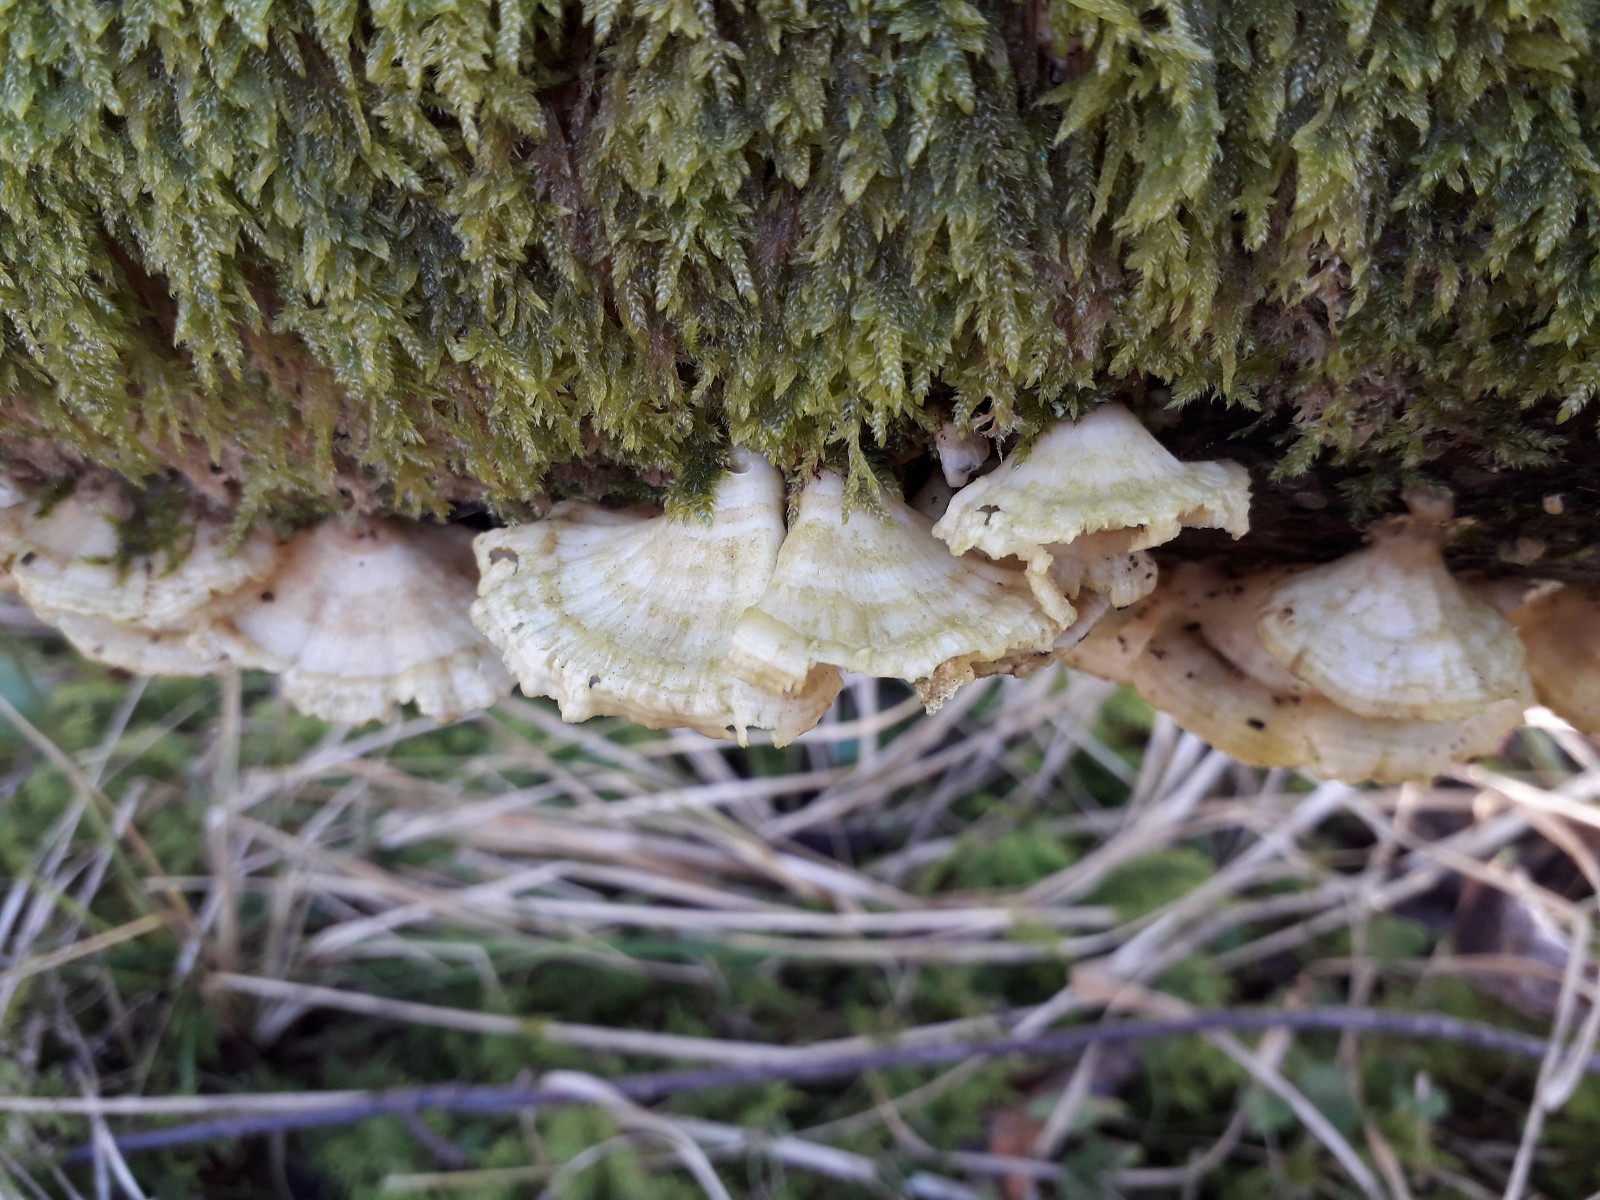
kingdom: Fungi
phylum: Basidiomycota
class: Agaricomycetes
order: Polyporales
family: Polyporaceae
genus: Trametes
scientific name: Trametes ochracea
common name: bæltet læderporesvamp
